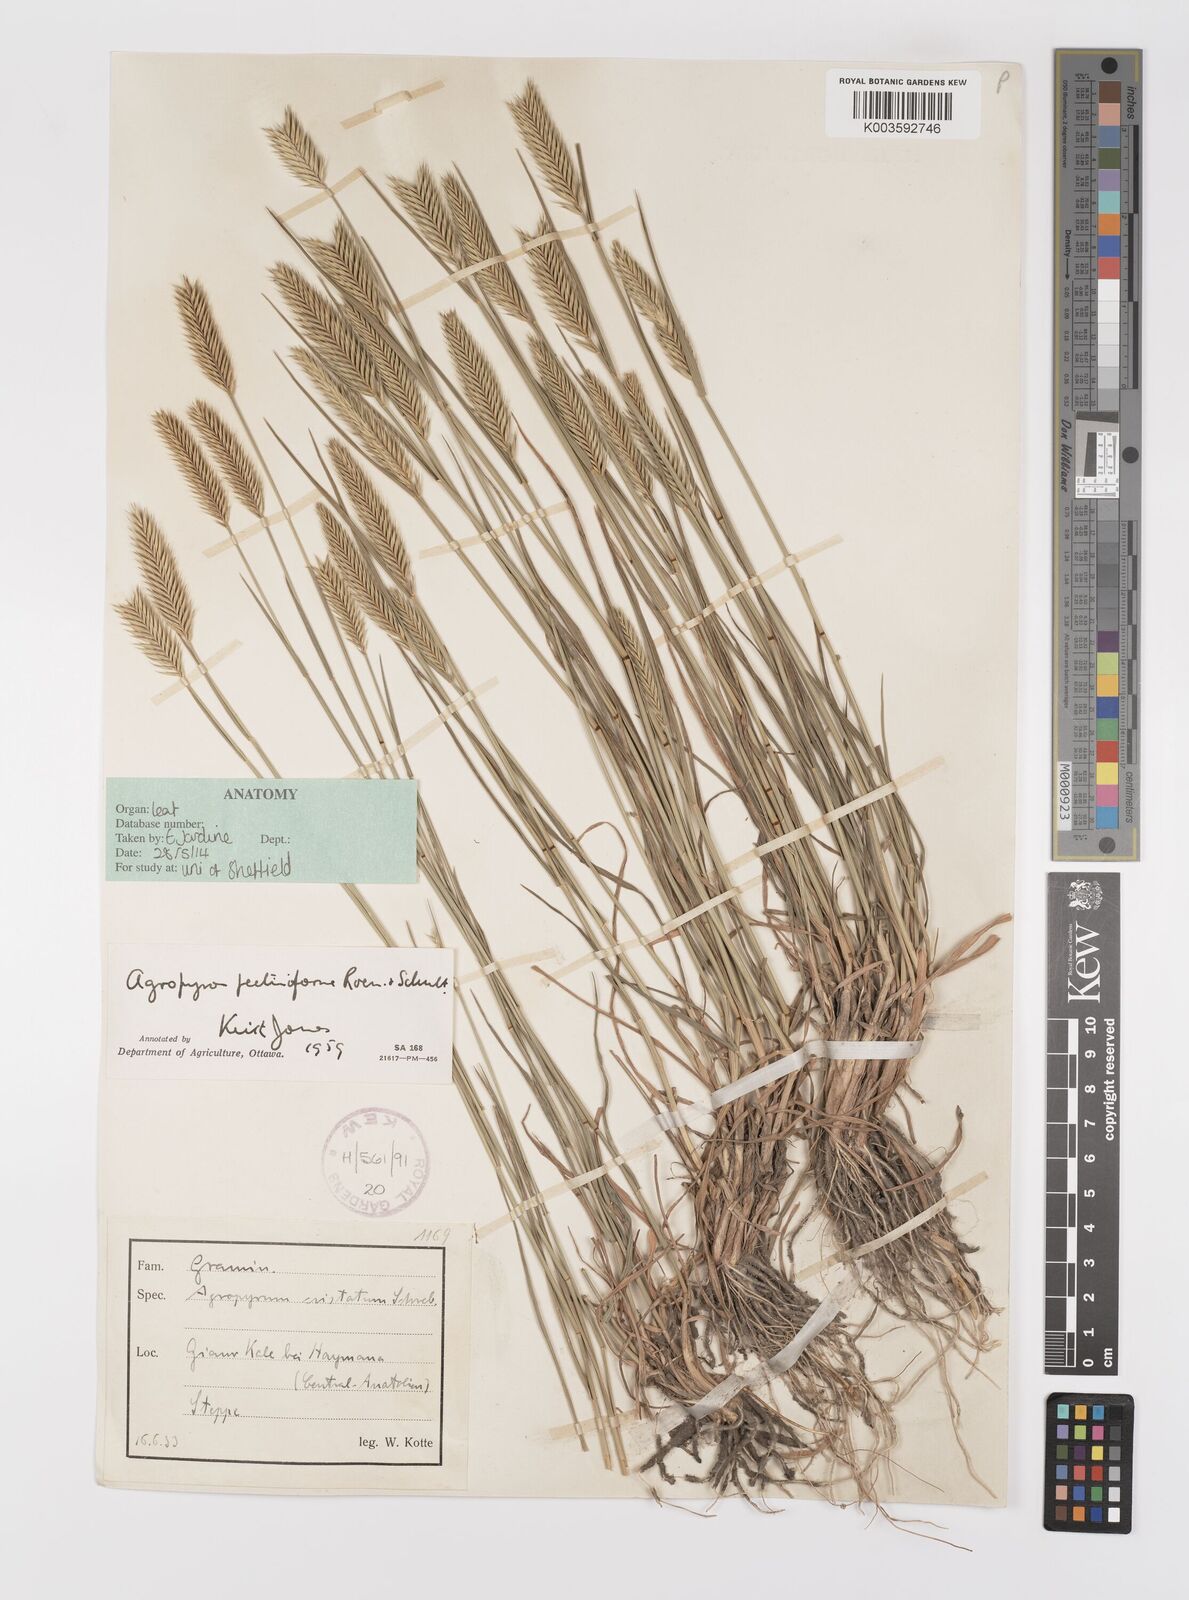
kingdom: Plantae
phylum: Tracheophyta
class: Liliopsida
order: Poales
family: Poaceae
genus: Agropyron
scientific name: Agropyron cristatum
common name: Crested wheatgrass
